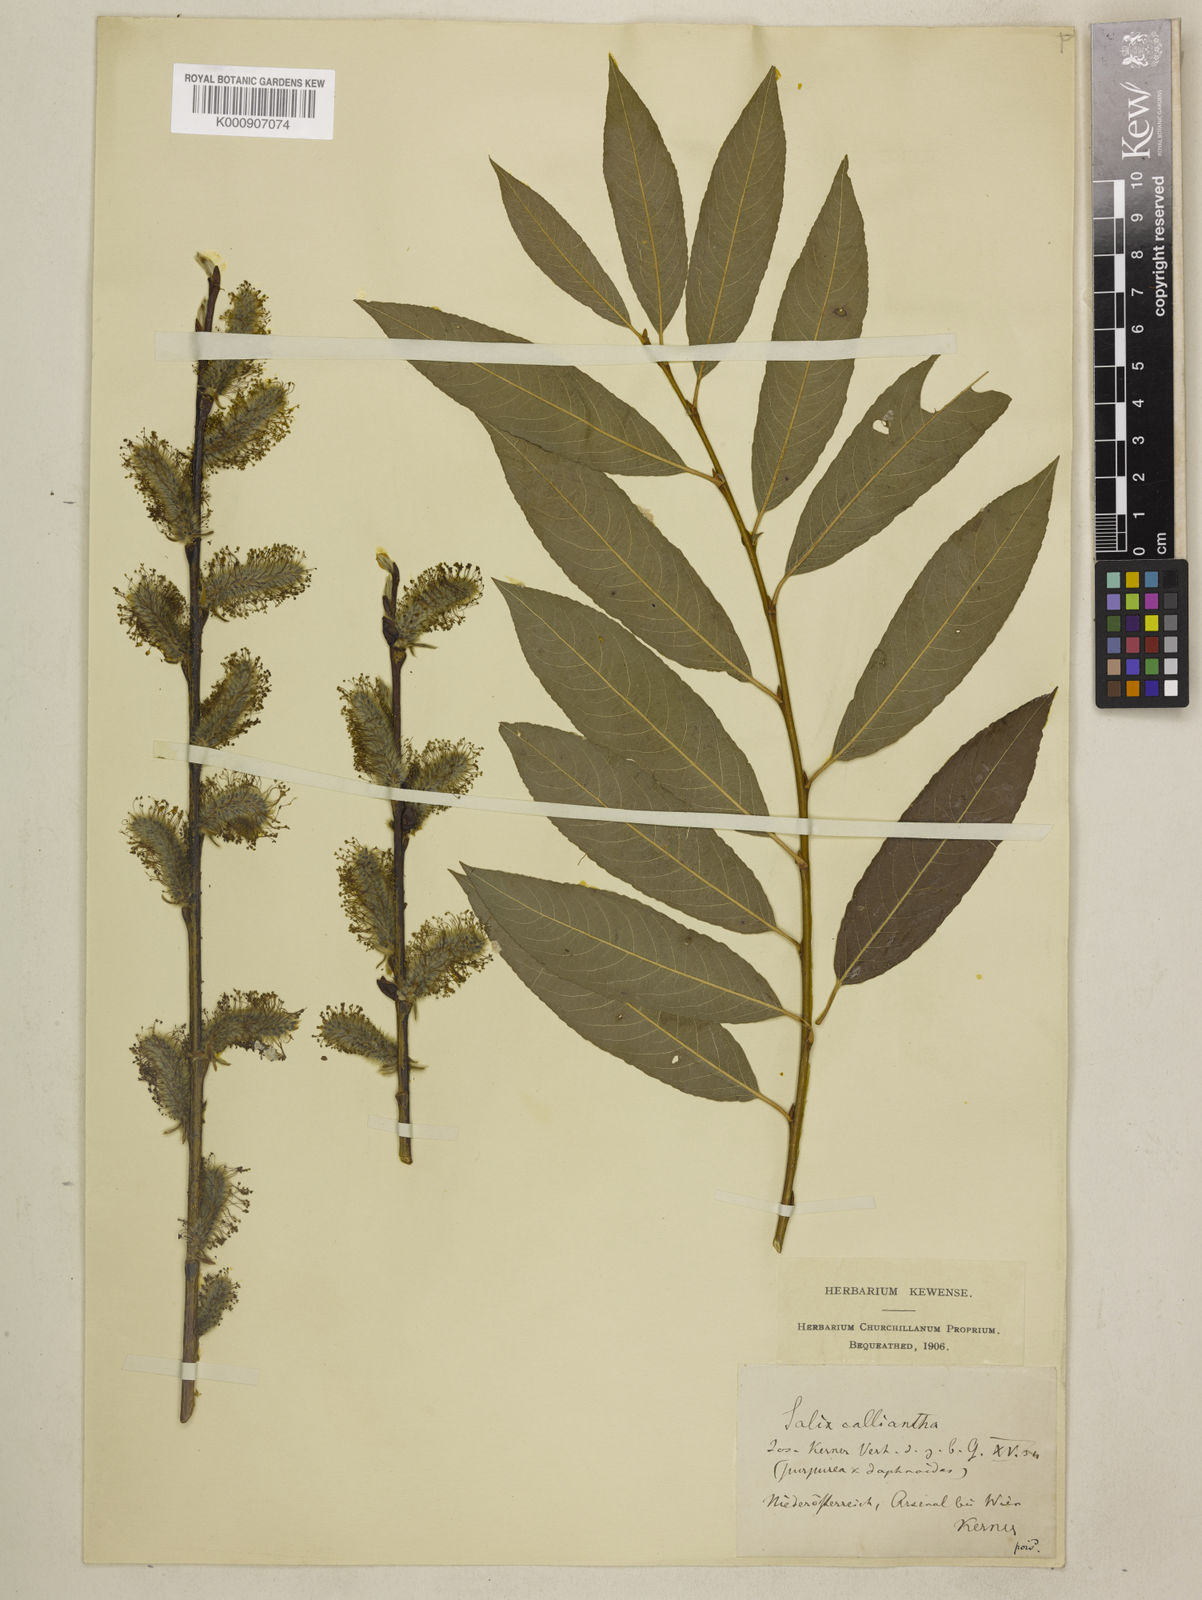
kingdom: Plantae
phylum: Tracheophyta
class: Magnoliopsida
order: Malpighiales
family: Salicaceae
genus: Salix
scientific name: Salix daphnoides
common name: European violet-willow
